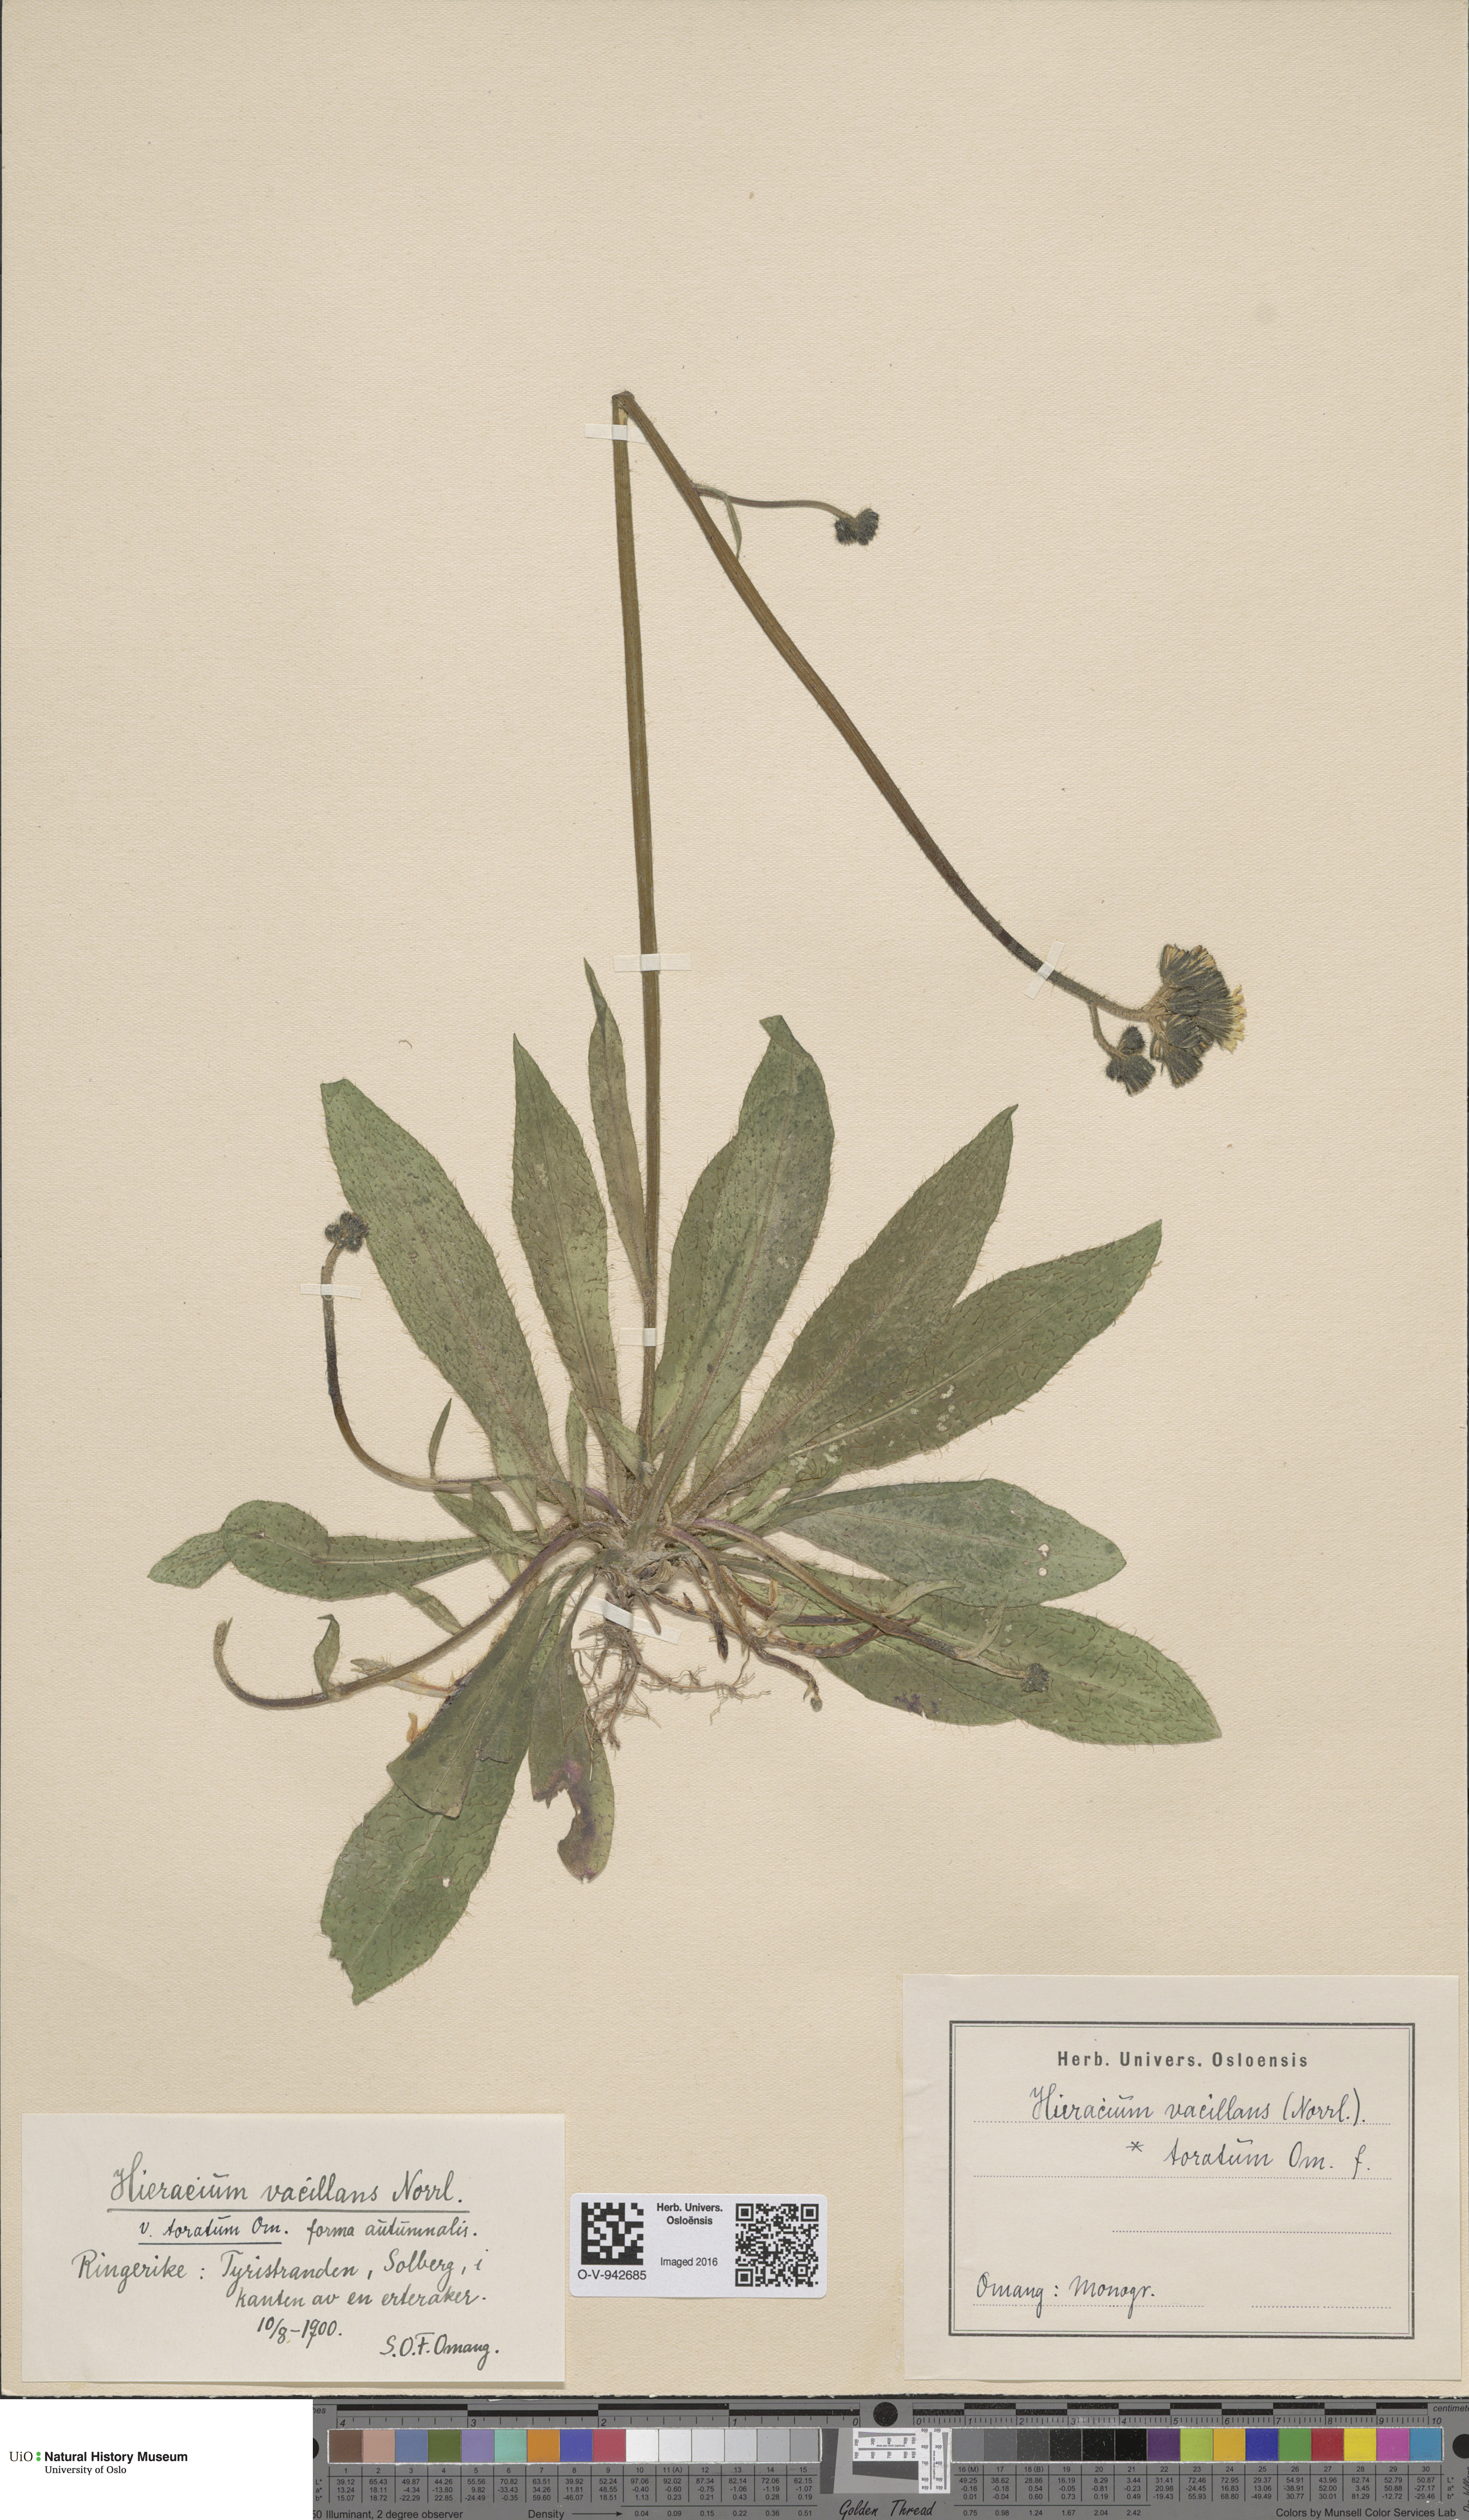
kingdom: Plantae
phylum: Tracheophyta
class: Magnoliopsida
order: Asterales
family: Asteraceae
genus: Pilosella
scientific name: Pilosella glomerata
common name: Queen devil hawkweed
